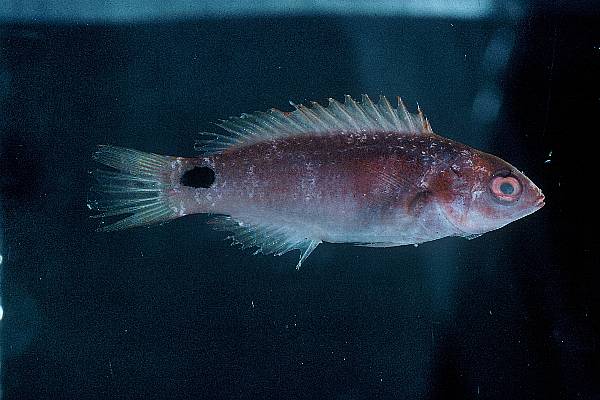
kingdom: Animalia
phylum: Chordata
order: Perciformes
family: Labridae
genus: Cirrhilabrus
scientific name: Cirrhilabrus exquisitus
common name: Exquisite wrasse
